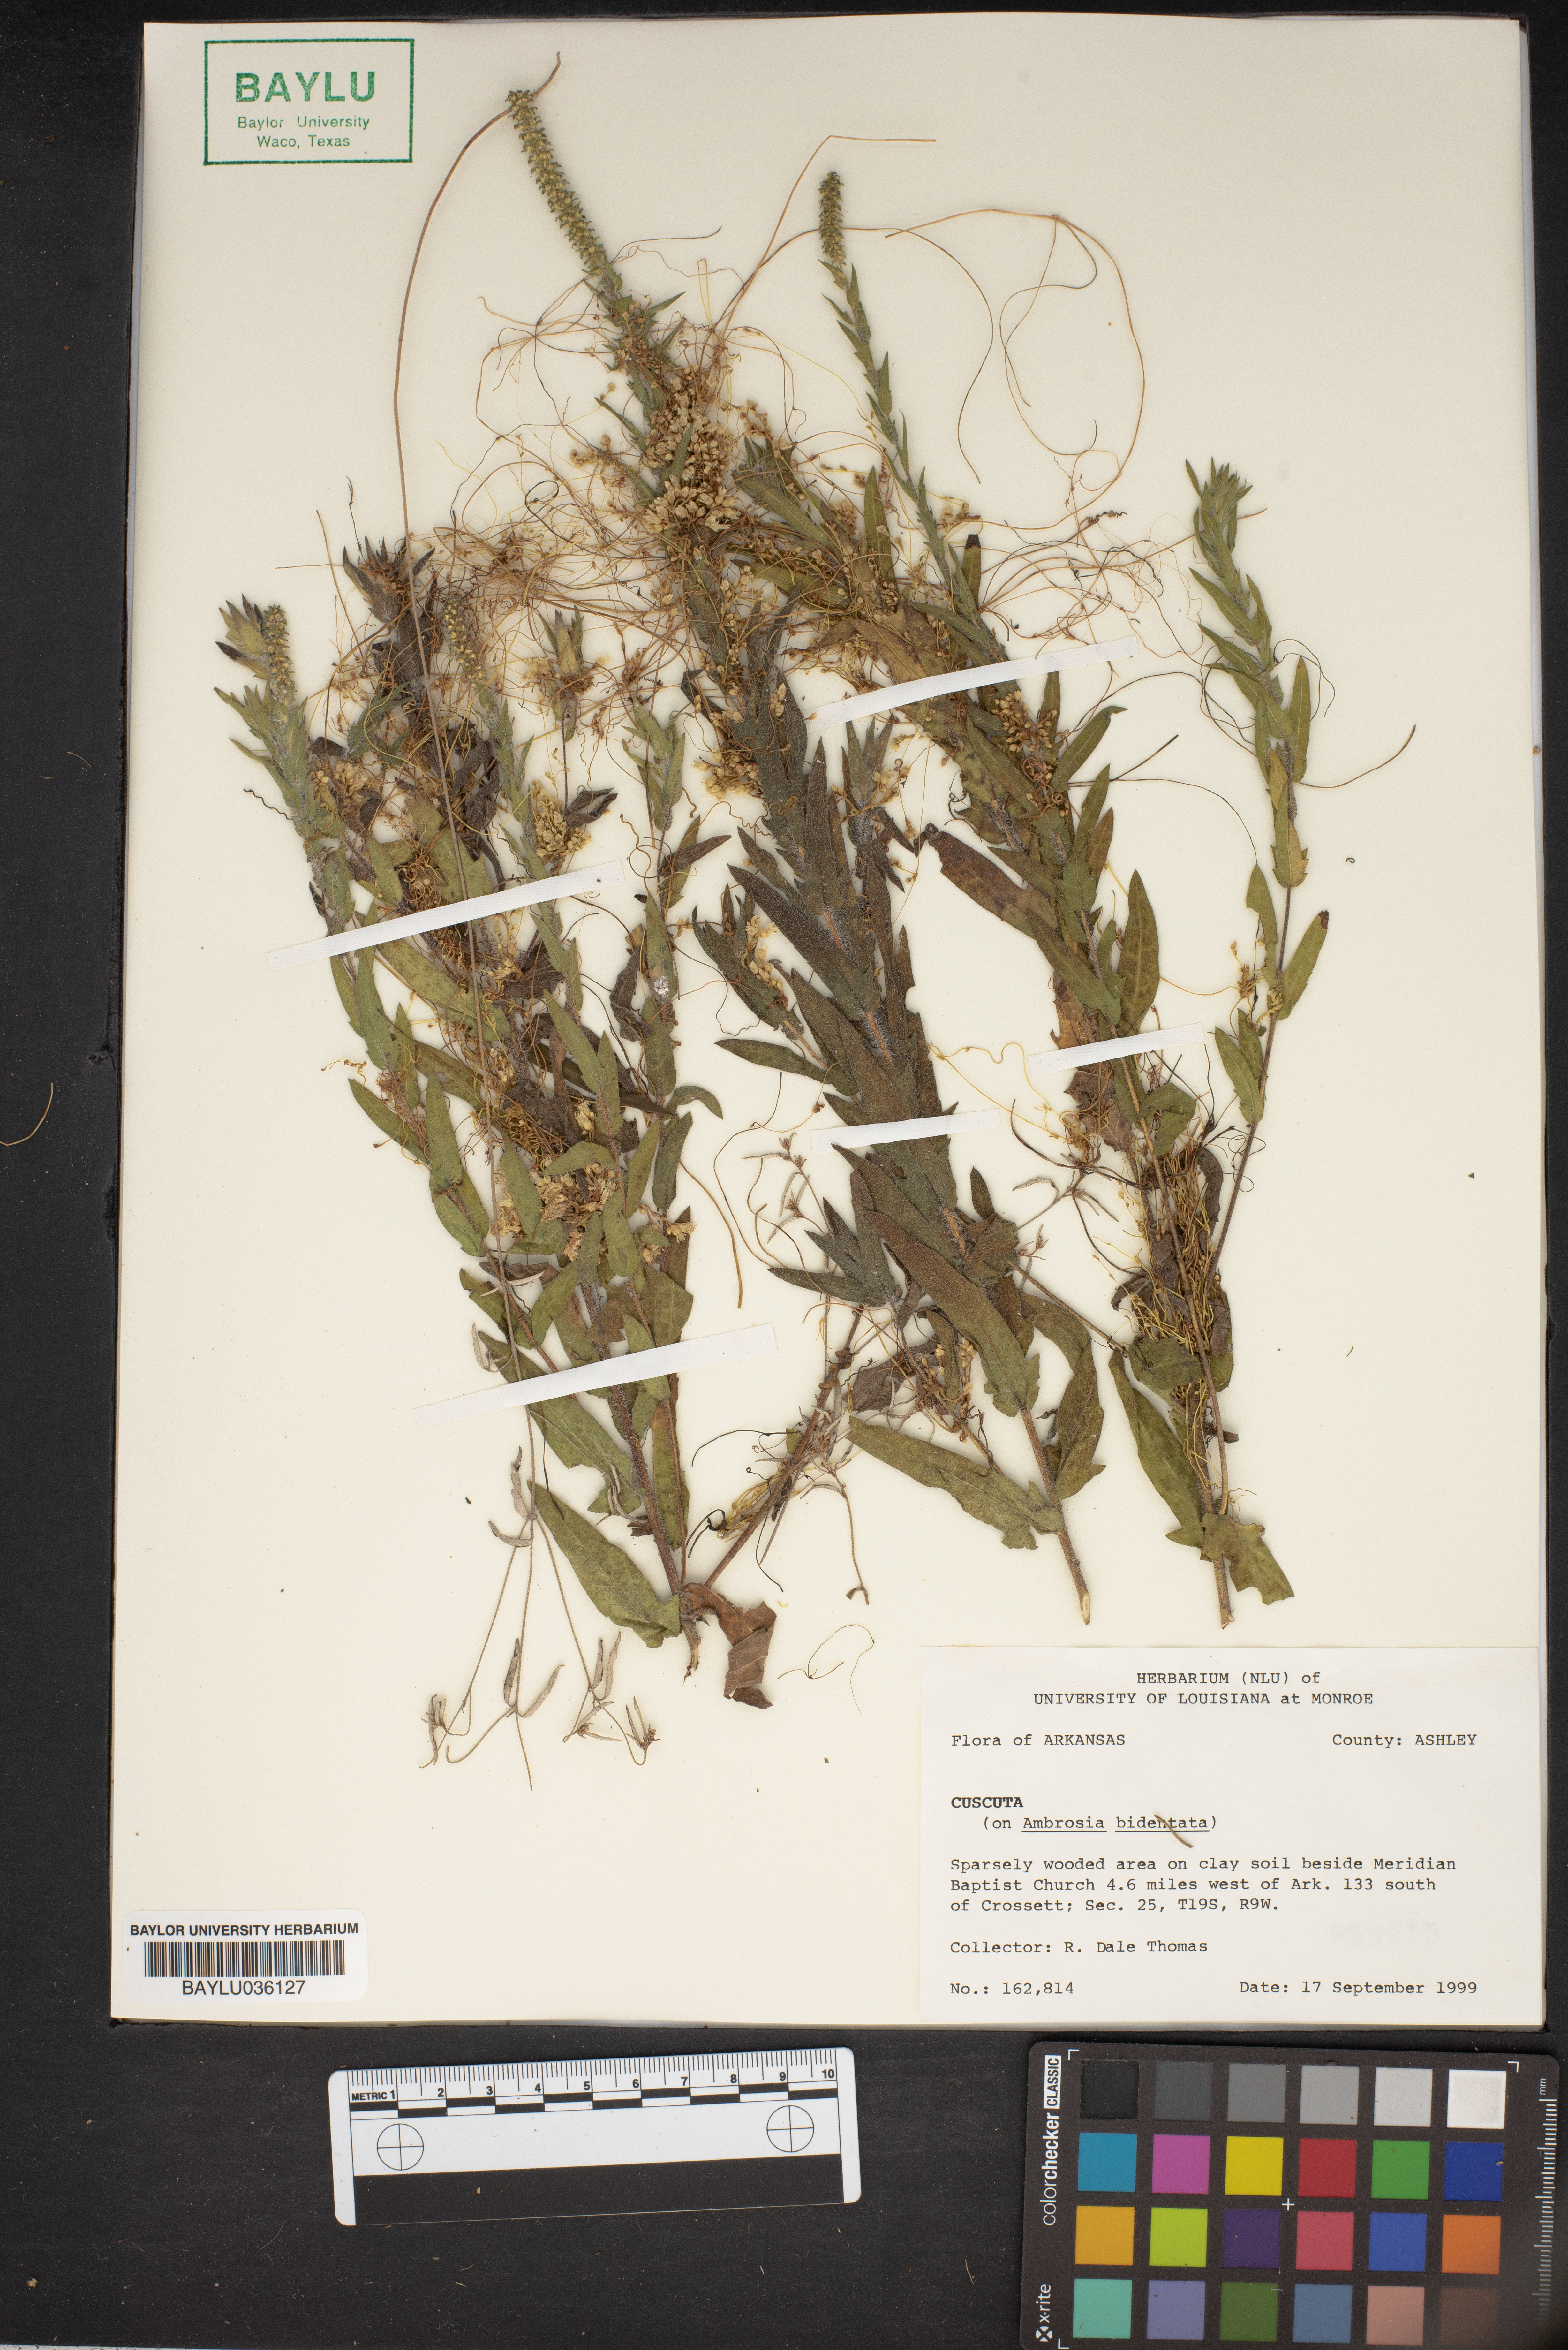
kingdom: Plantae
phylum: Tracheophyta
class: Magnoliopsida
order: Solanales
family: Convolvulaceae
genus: Cuscuta
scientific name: Cuscuta
